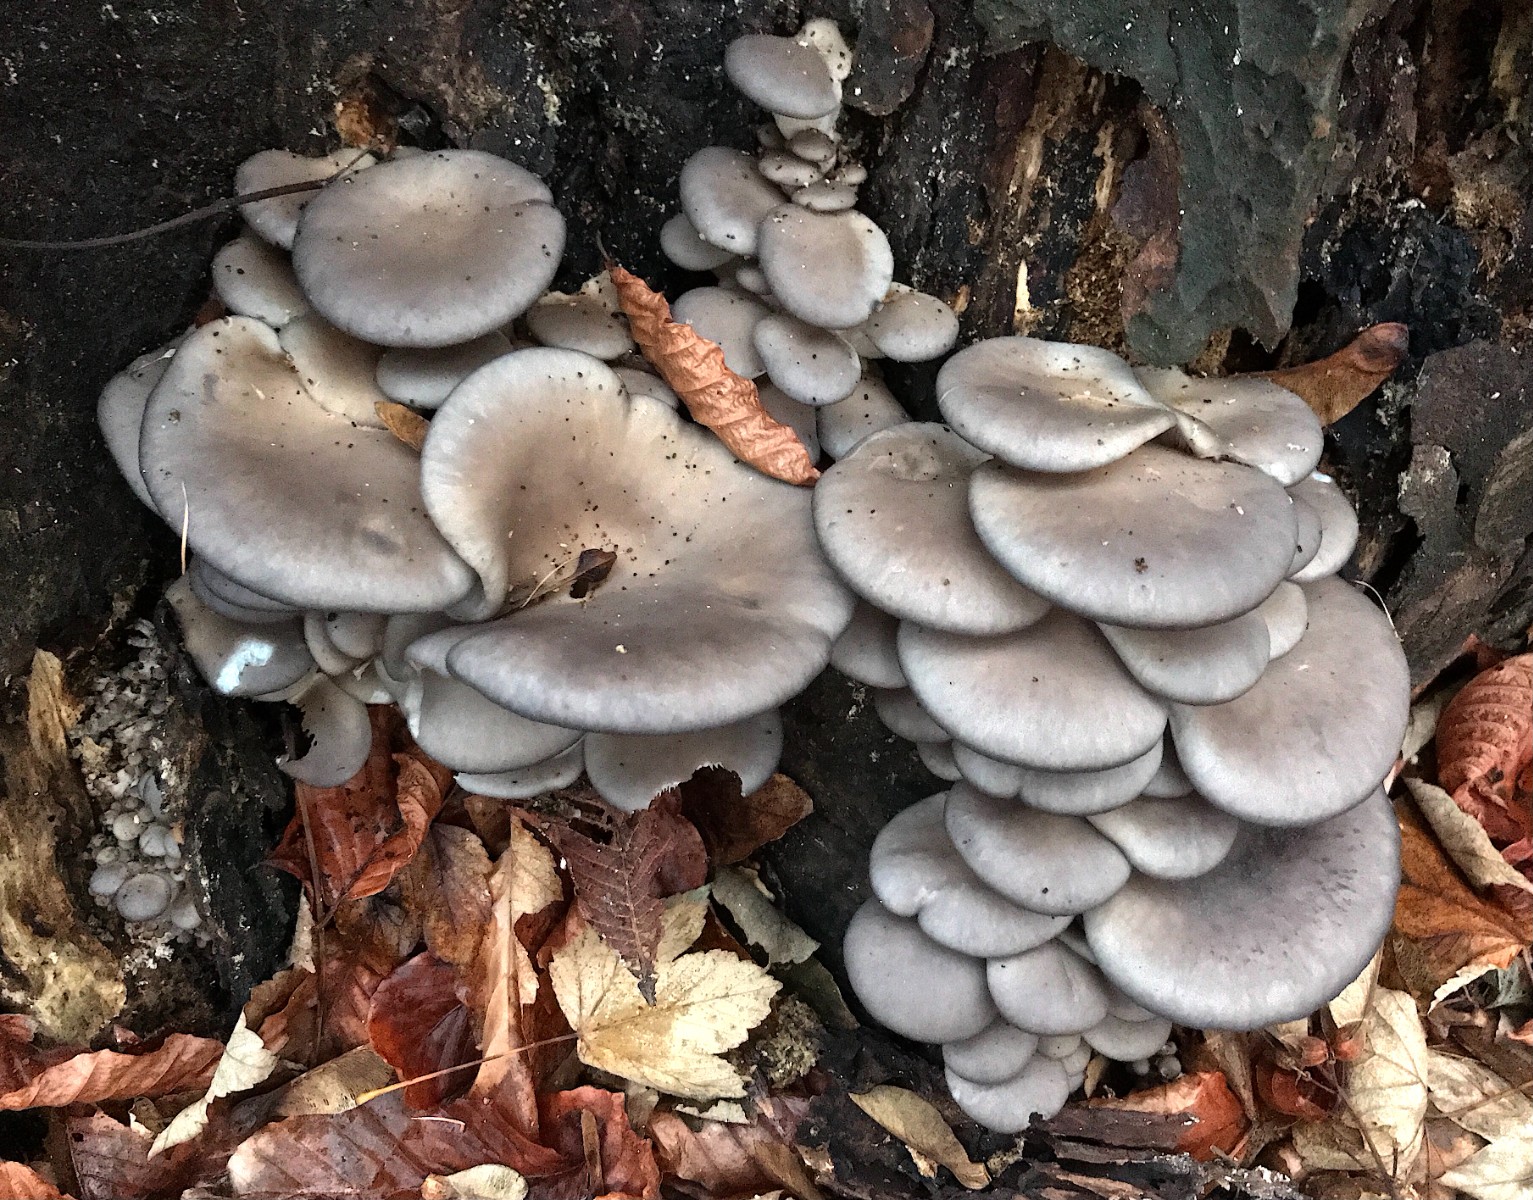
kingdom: Fungi
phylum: Basidiomycota
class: Agaricomycetes
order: Agaricales
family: Pleurotaceae
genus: Pleurotus
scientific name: Pleurotus ostreatus
